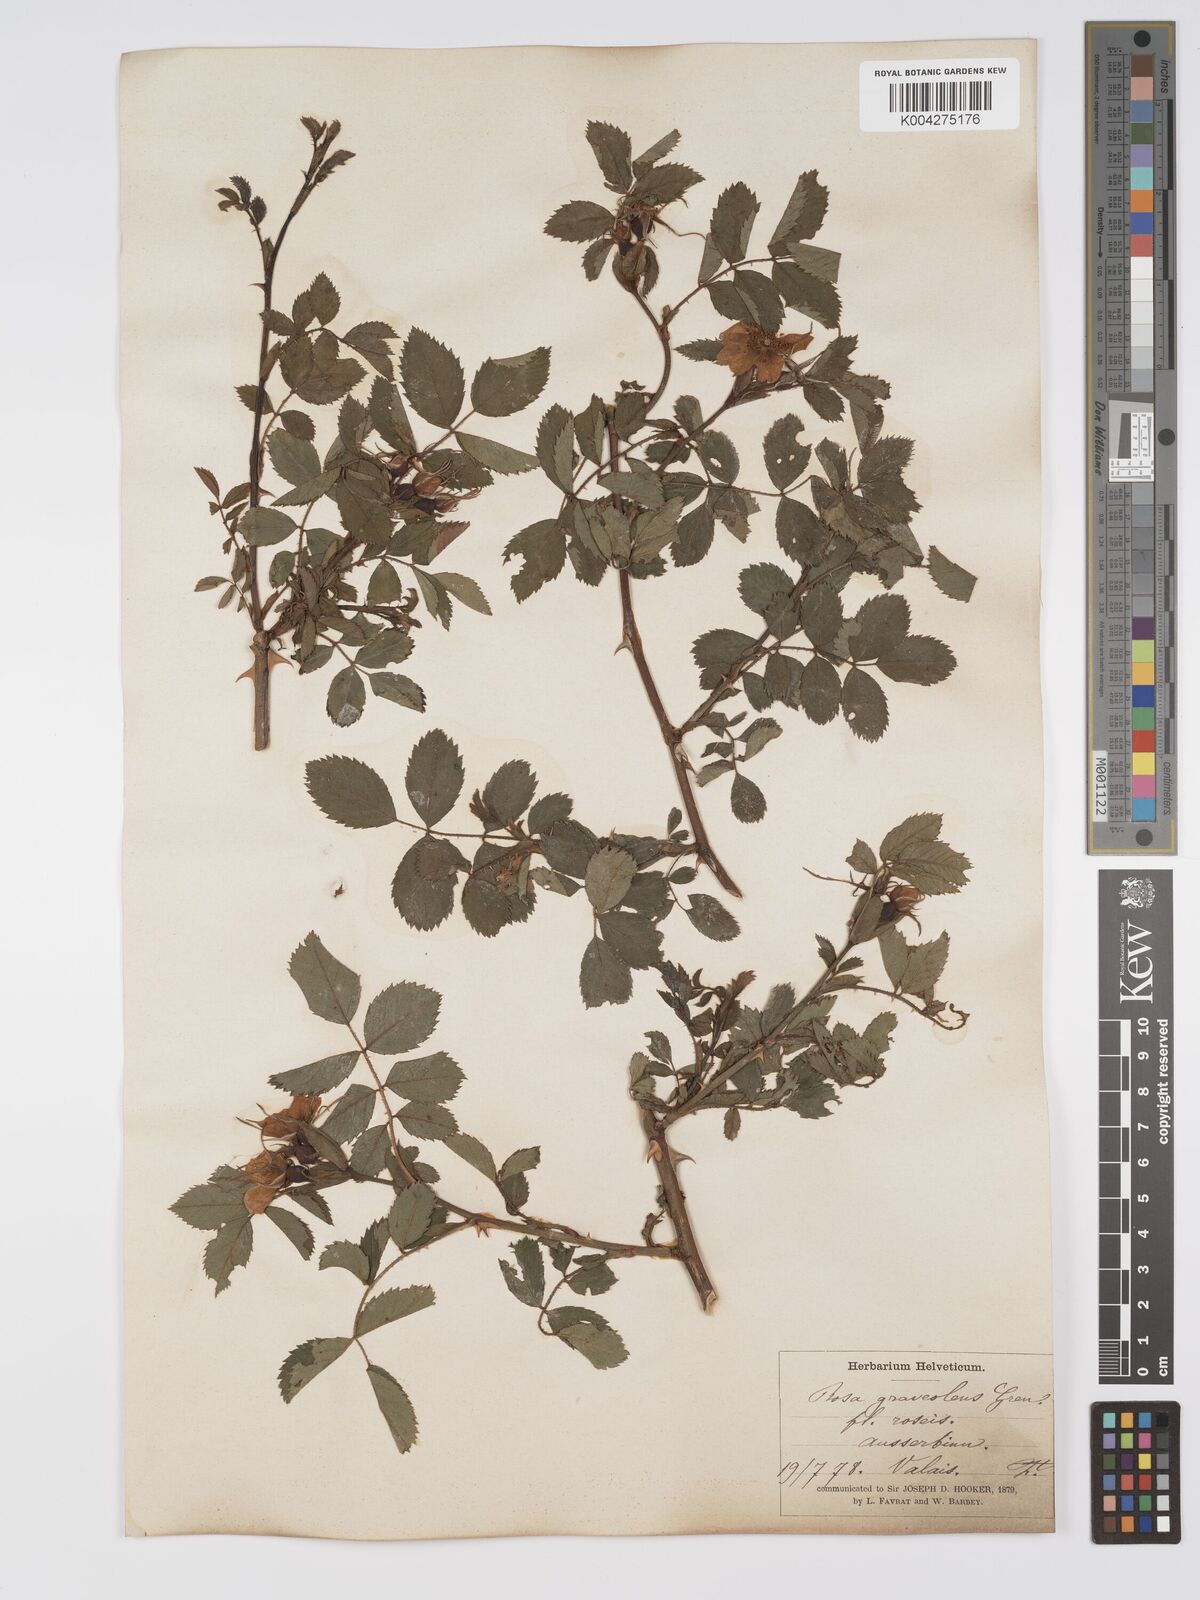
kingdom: Plantae
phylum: Tracheophyta
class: Magnoliopsida
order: Rosales
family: Rosaceae
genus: Rosa
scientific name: Rosa
